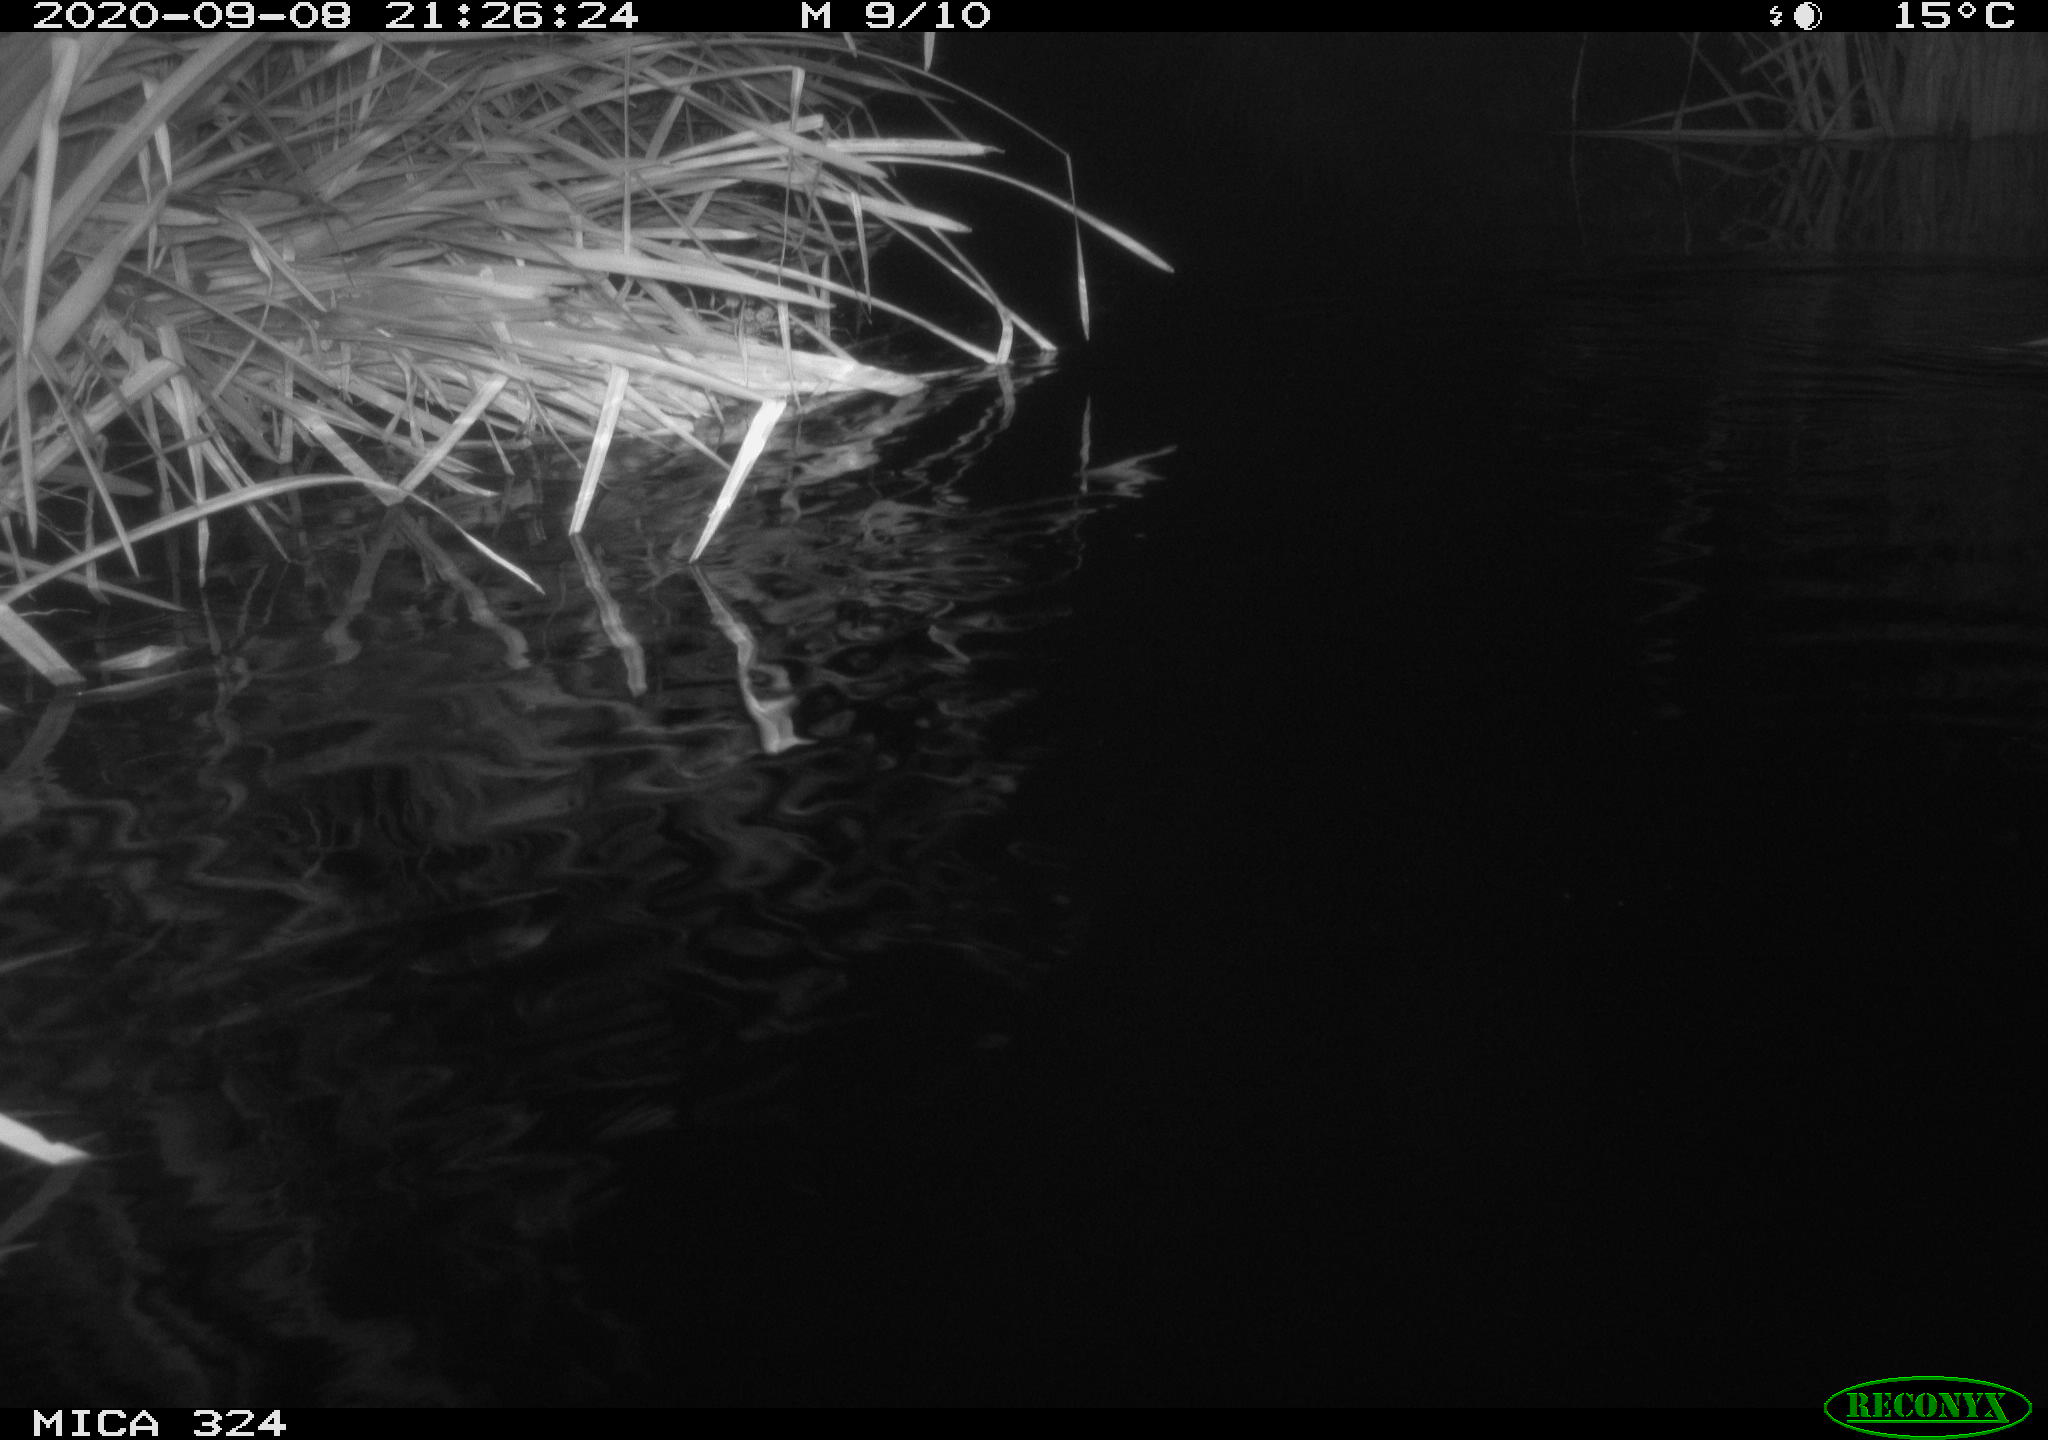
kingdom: Animalia
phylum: Chordata
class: Mammalia
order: Rodentia
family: Cricetidae
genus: Ondatra
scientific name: Ondatra zibethicus
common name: Muskrat
